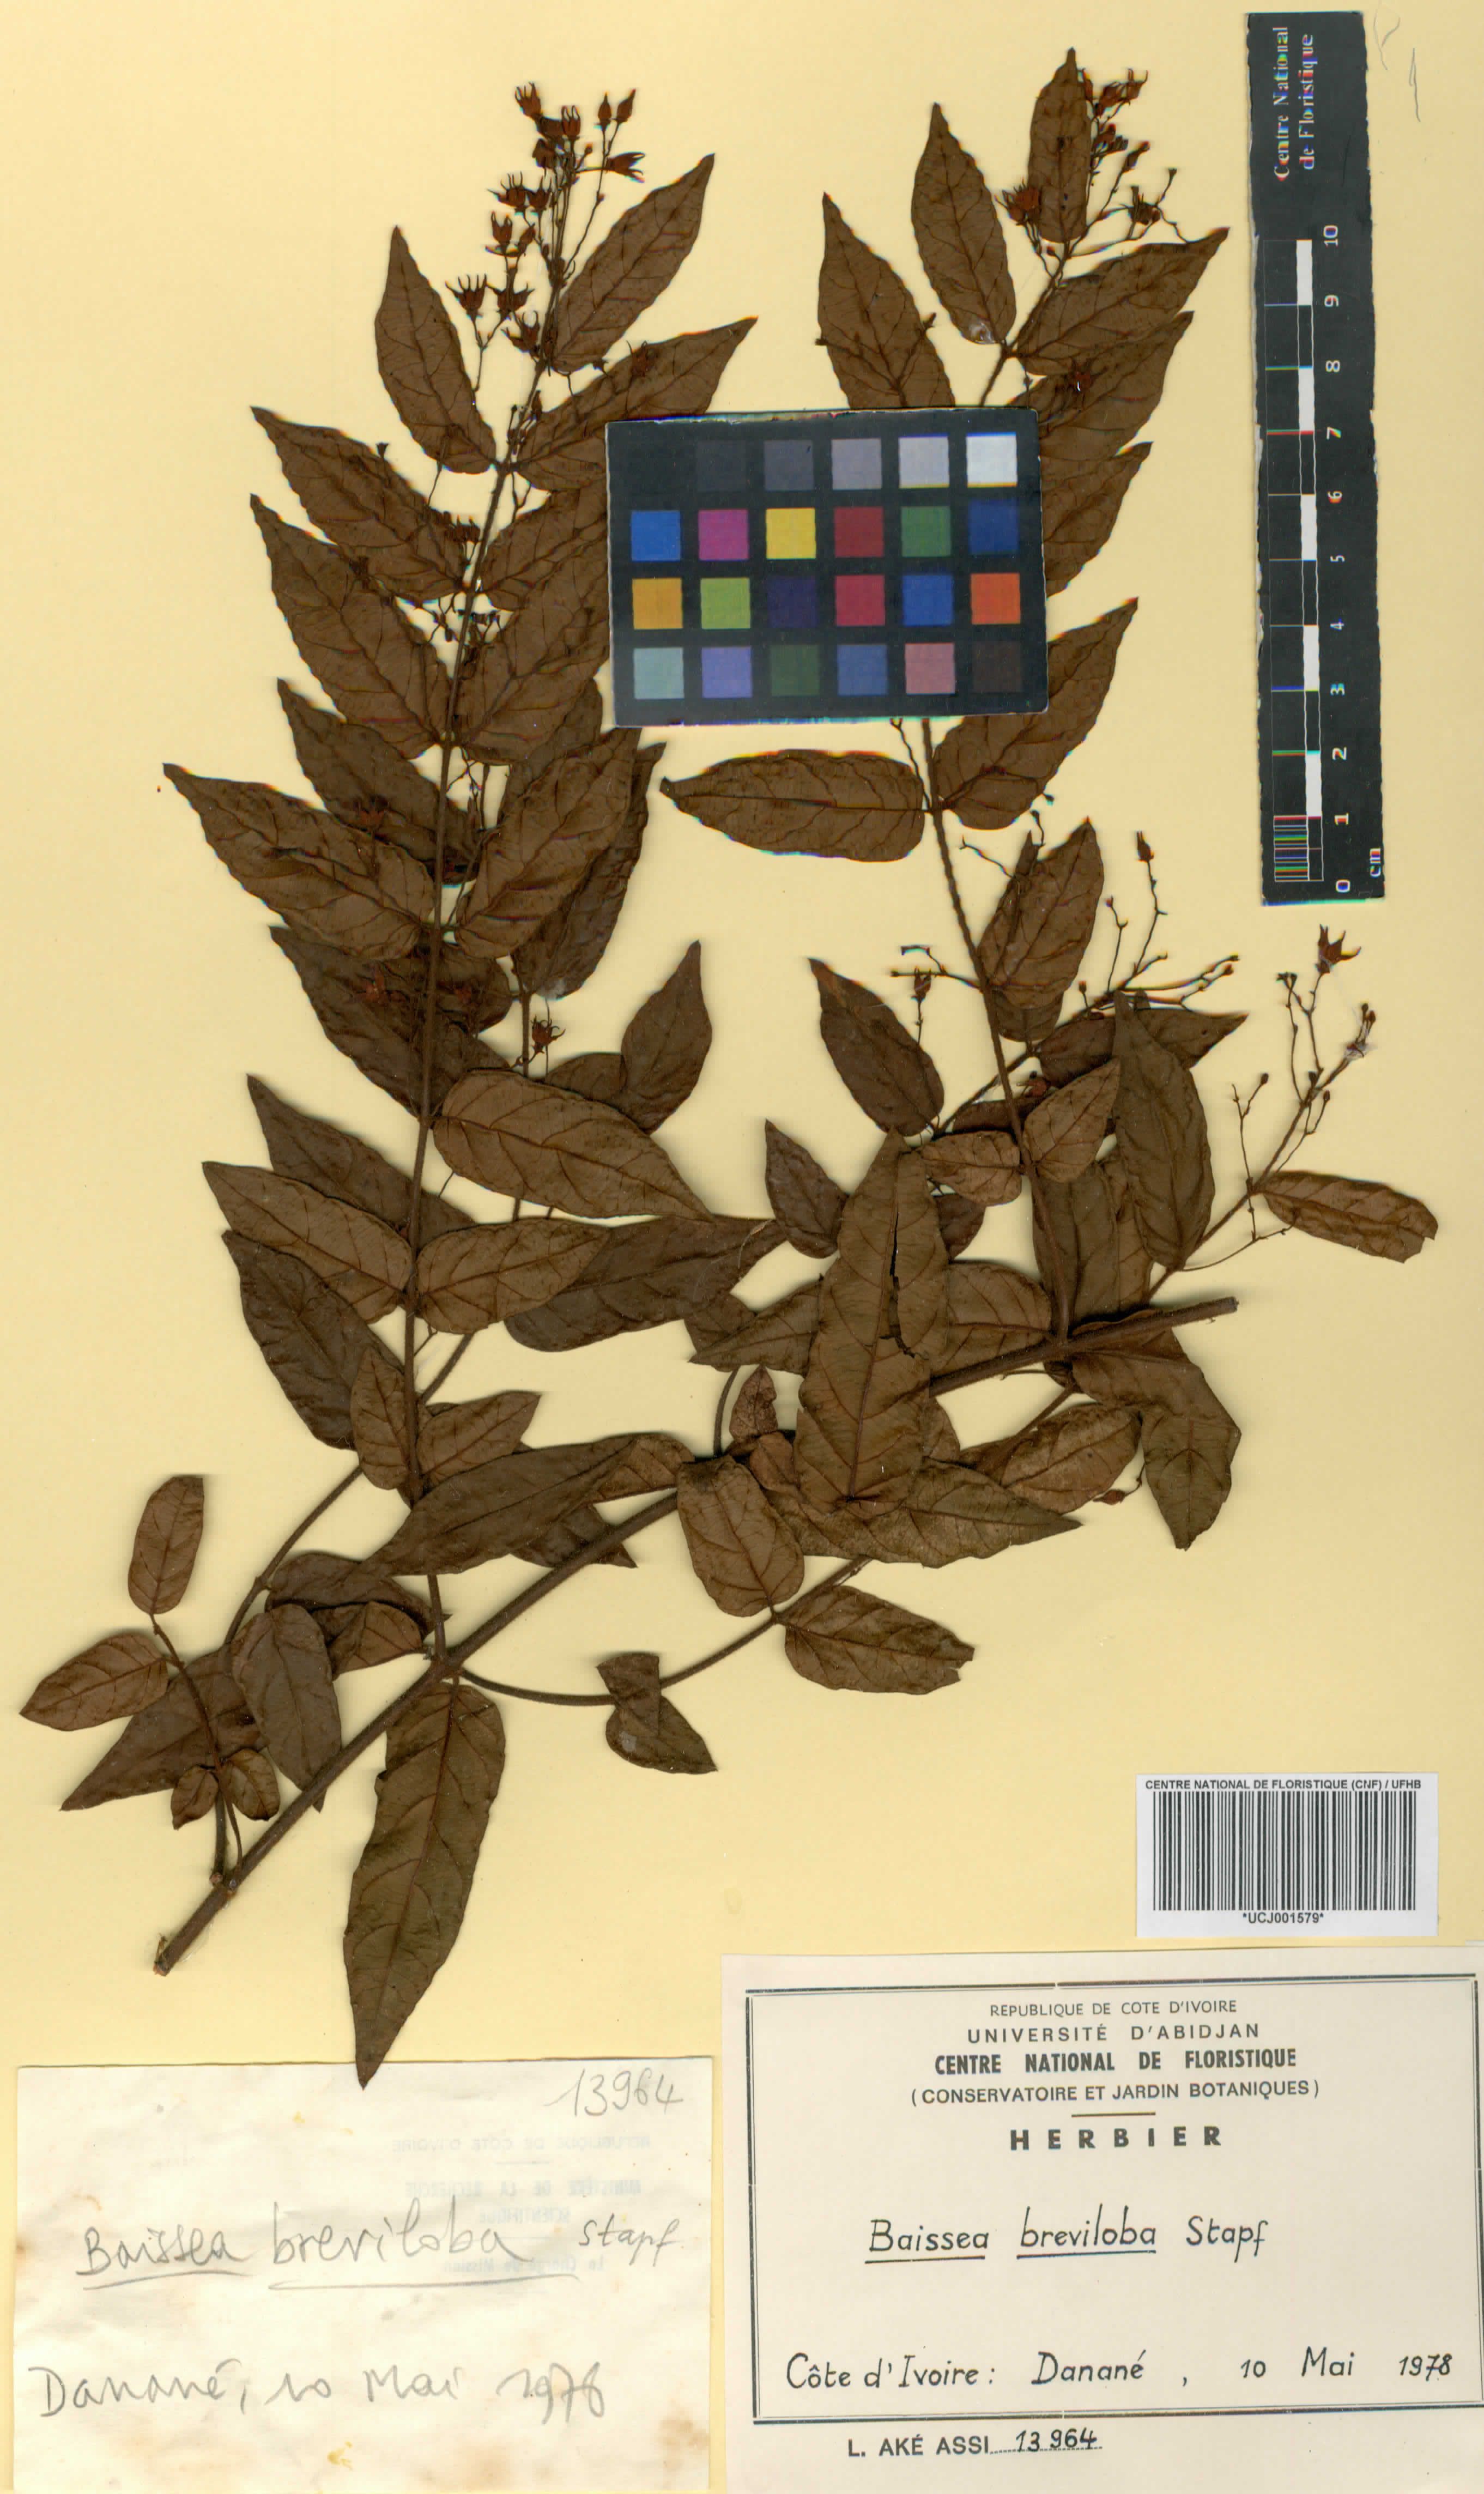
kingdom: Plantae
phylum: Tracheophyta
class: Magnoliopsida
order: Gentianales
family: Apocynaceae
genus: Baissea
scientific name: Baissea baillonii
